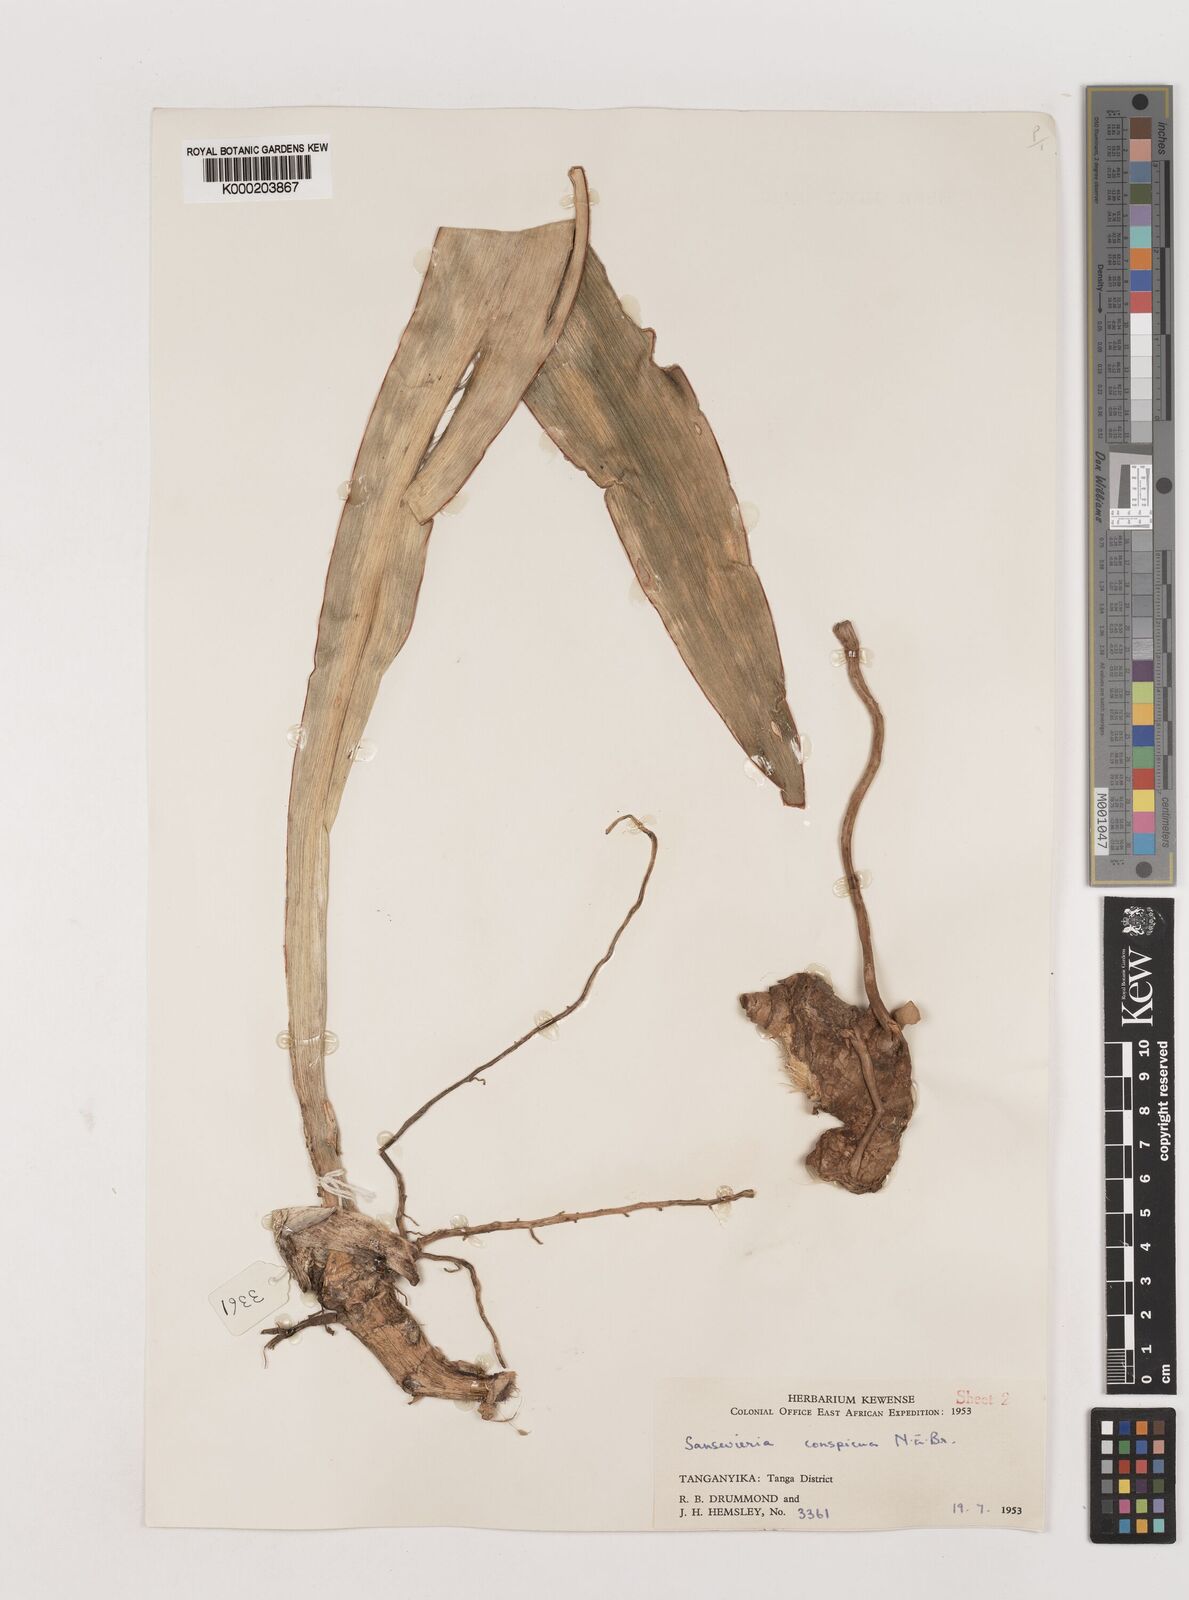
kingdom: Plantae
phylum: Tracheophyta
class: Liliopsida
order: Asparagales
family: Asparagaceae
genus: Dracaena
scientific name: Dracaena conspicua
